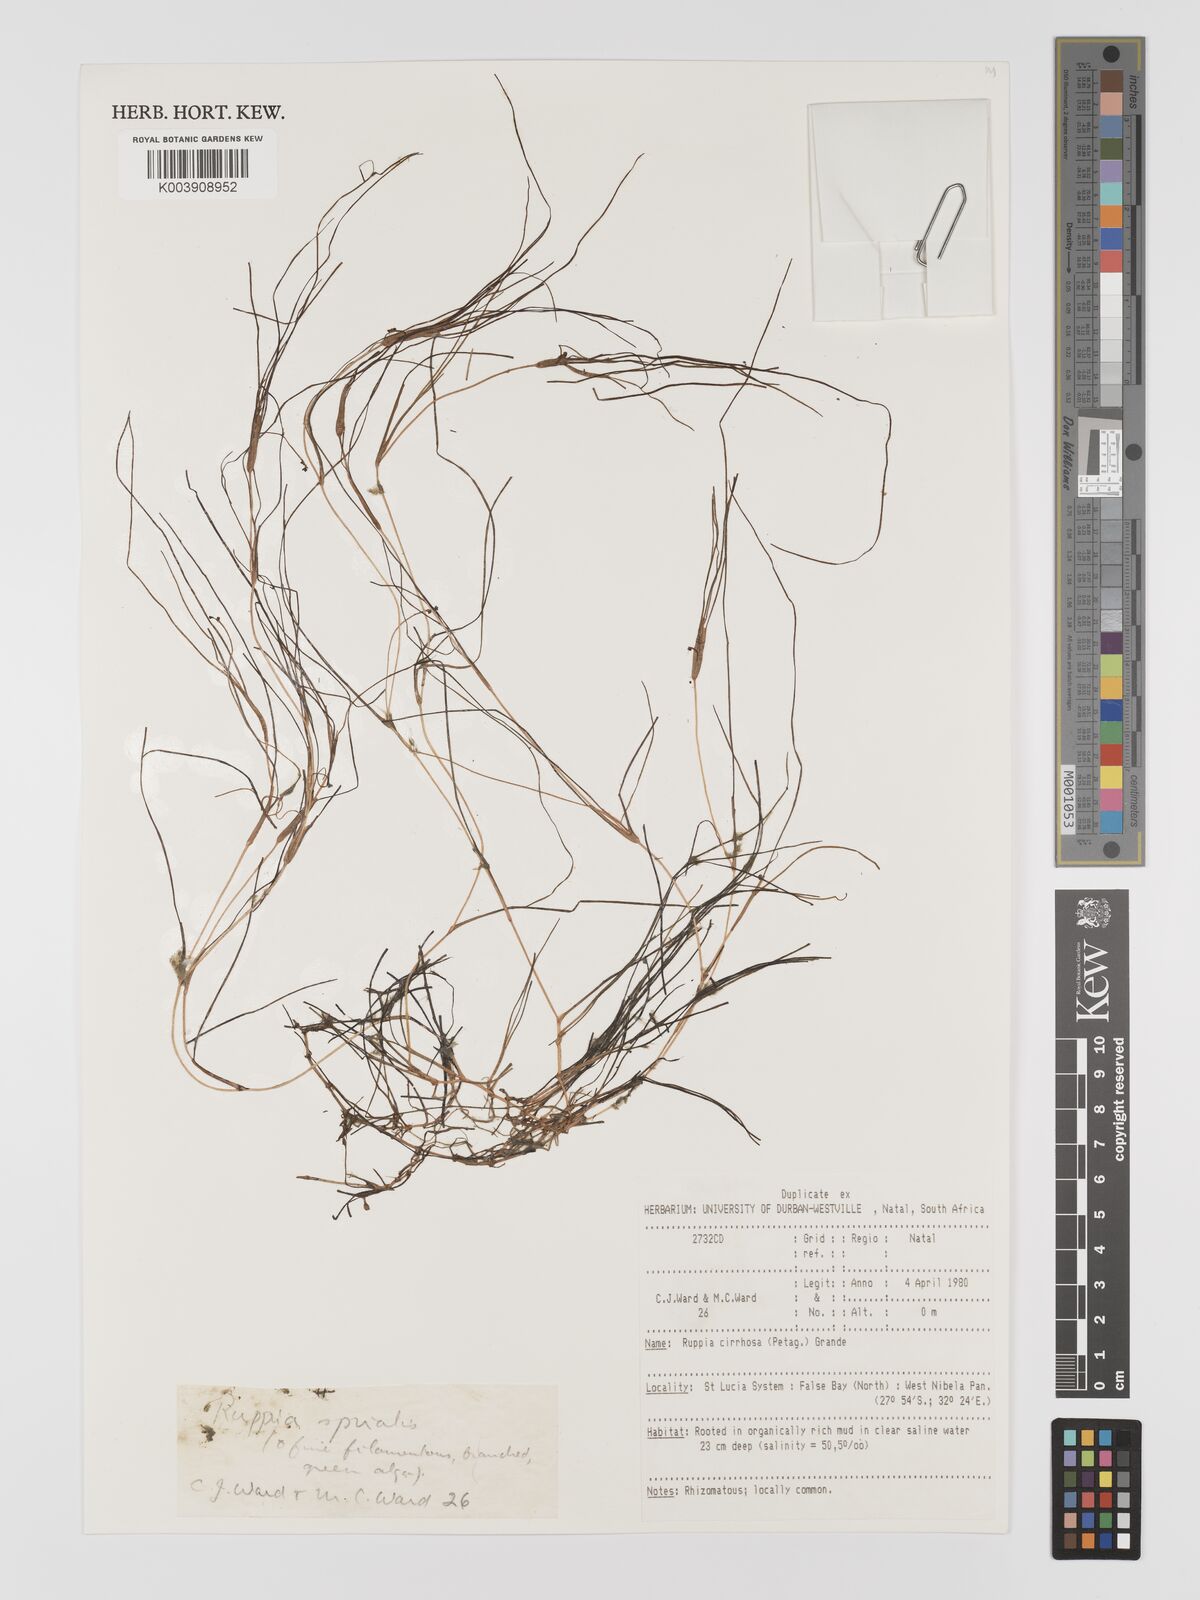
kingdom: Plantae
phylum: Tracheophyta
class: Liliopsida
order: Alismatales
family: Ruppiaceae
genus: Ruppia
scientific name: Ruppia cirrhosa
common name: Spiral tasselweed
